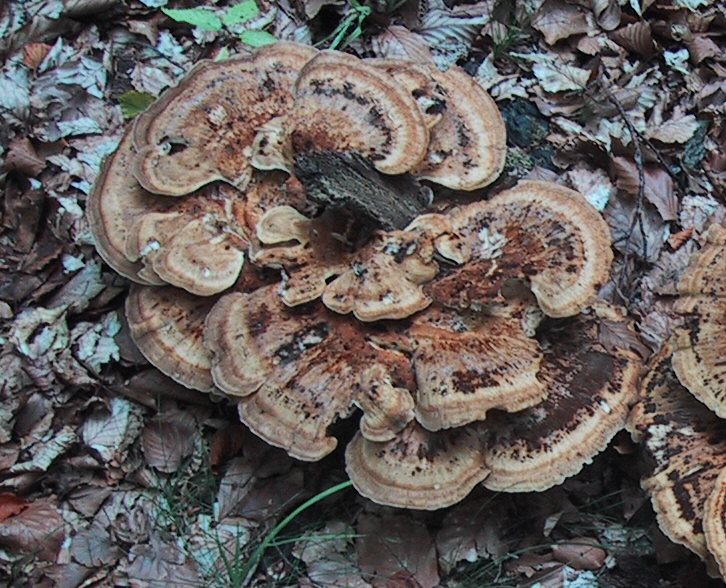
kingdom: Fungi
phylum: Basidiomycota
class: Agaricomycetes
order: Polyporales
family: Meripilaceae
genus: Meripilus
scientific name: Meripilus giganteus
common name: kæmpeporesvamp
